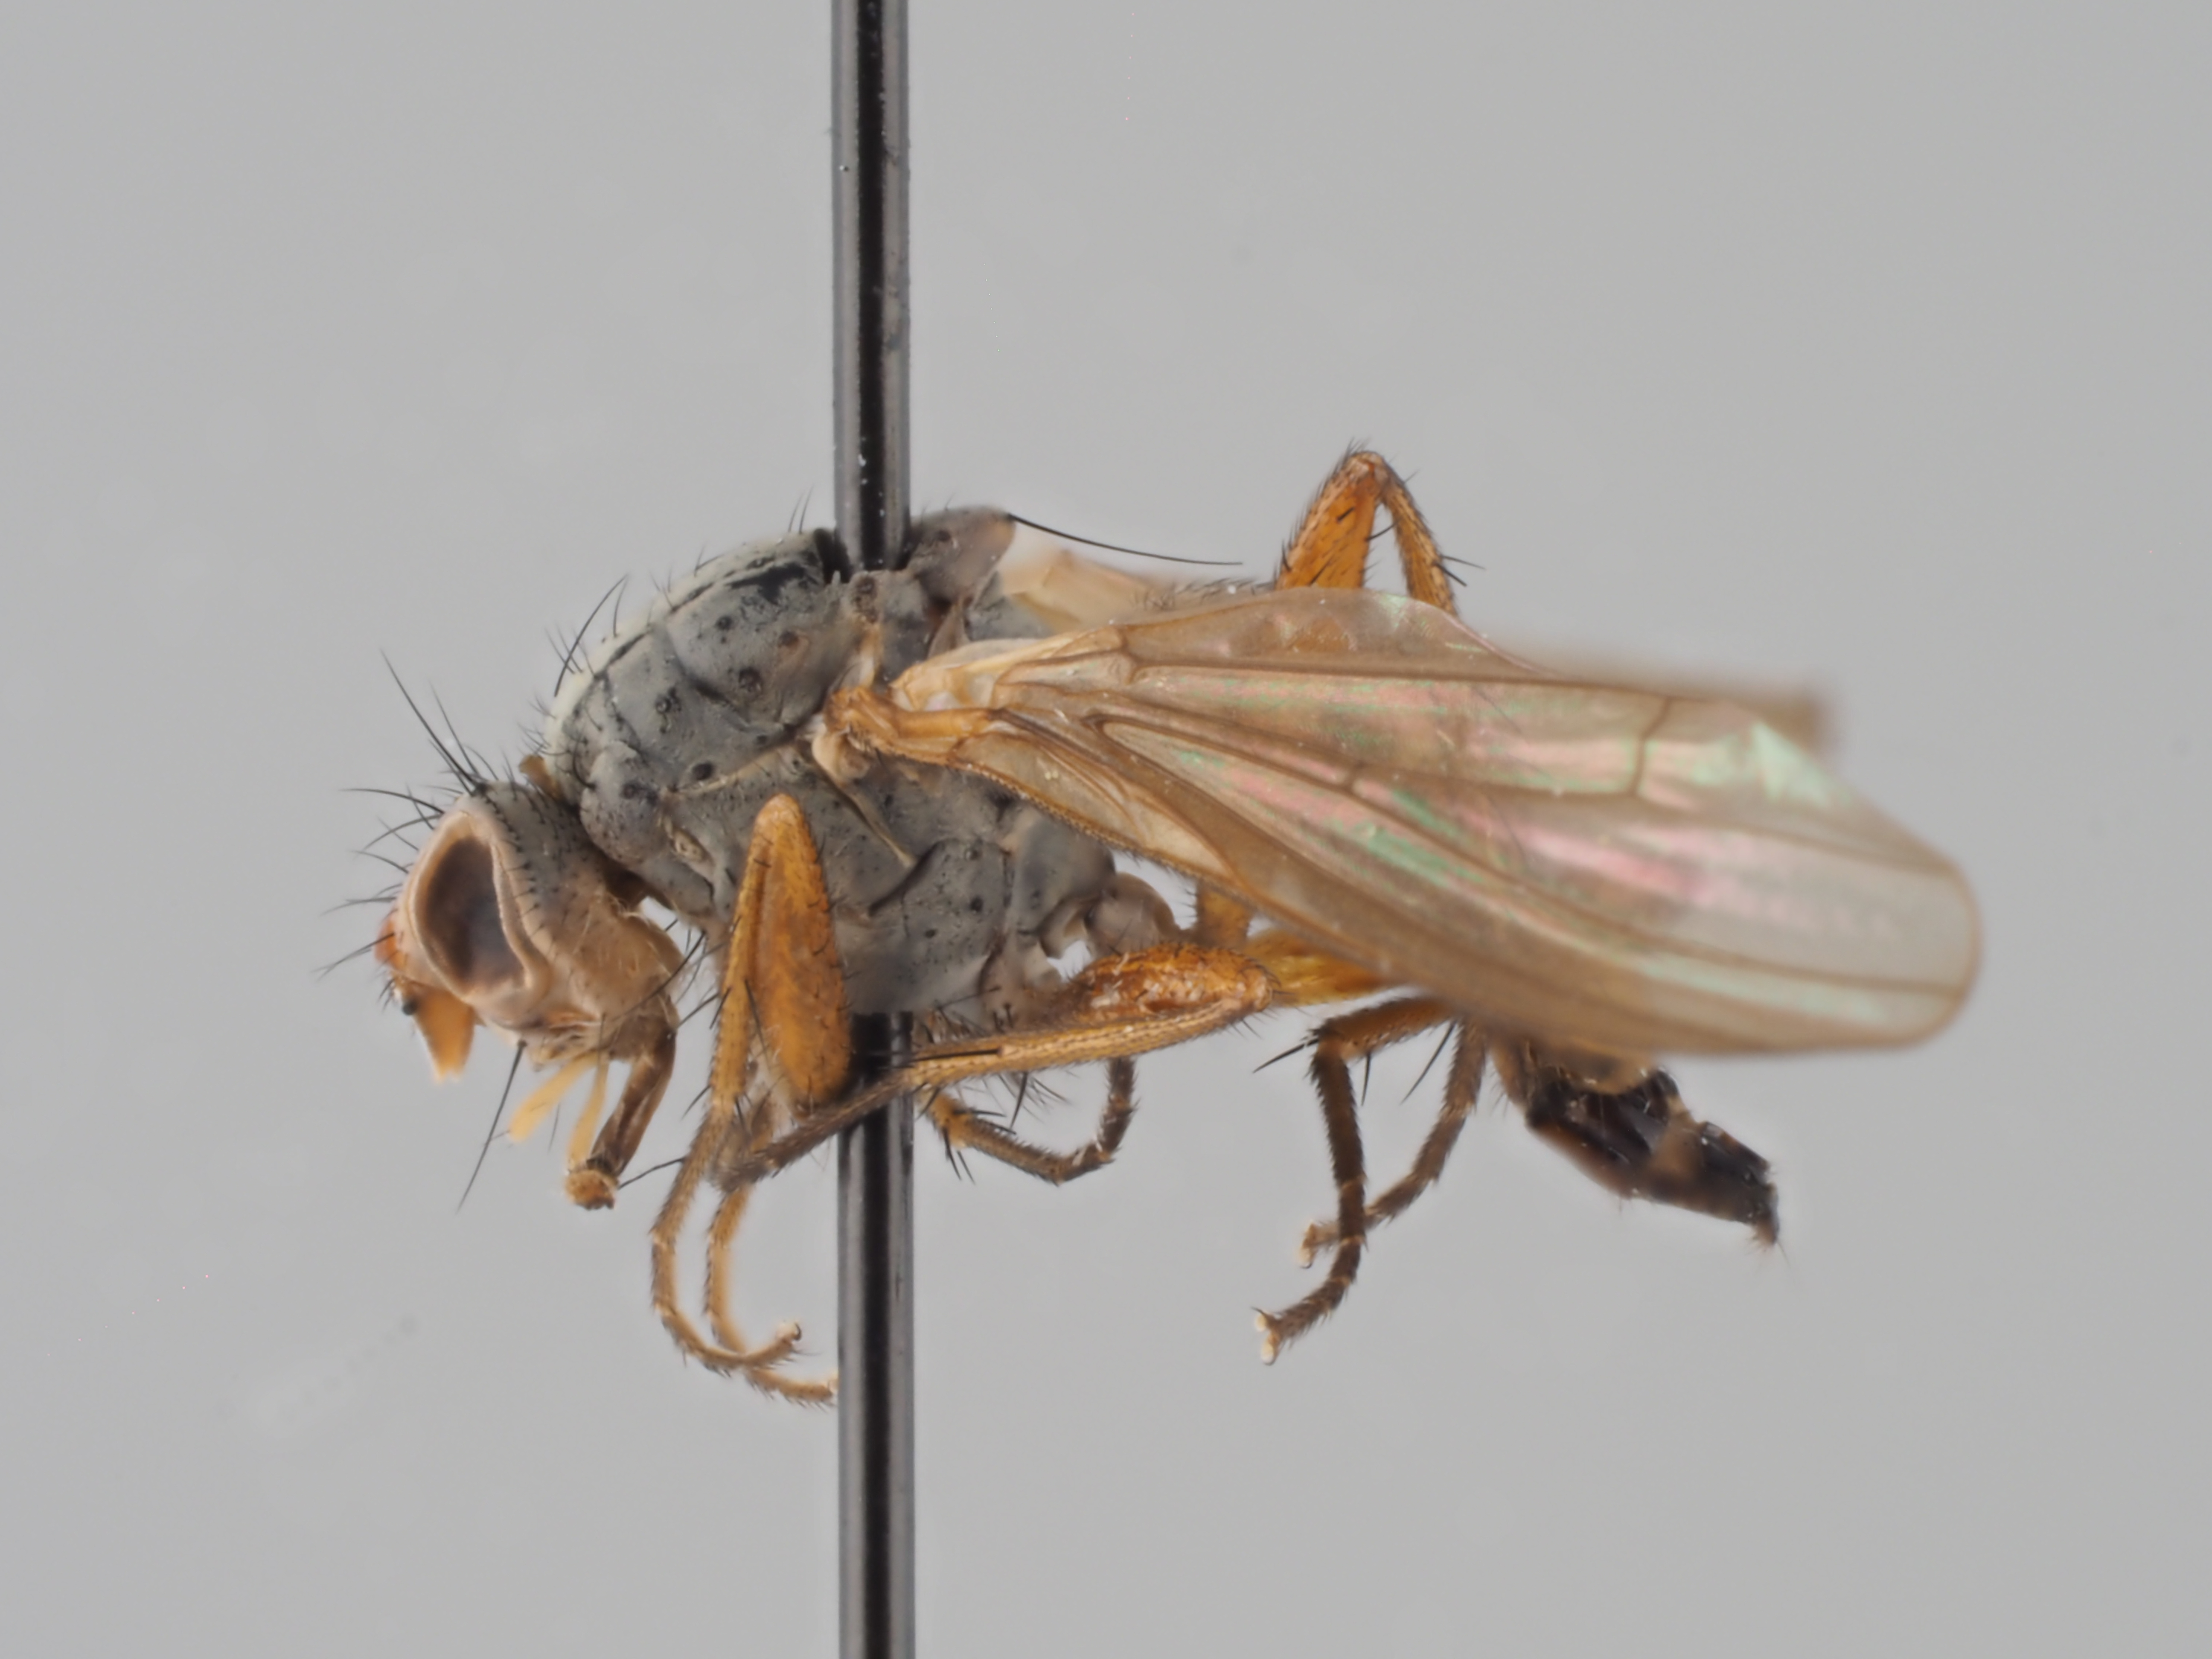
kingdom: Animalia
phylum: Arthropoda
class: Insecta
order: Diptera
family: Scathophagidae
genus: Cleigastra
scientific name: Cleigastra abdominalis
